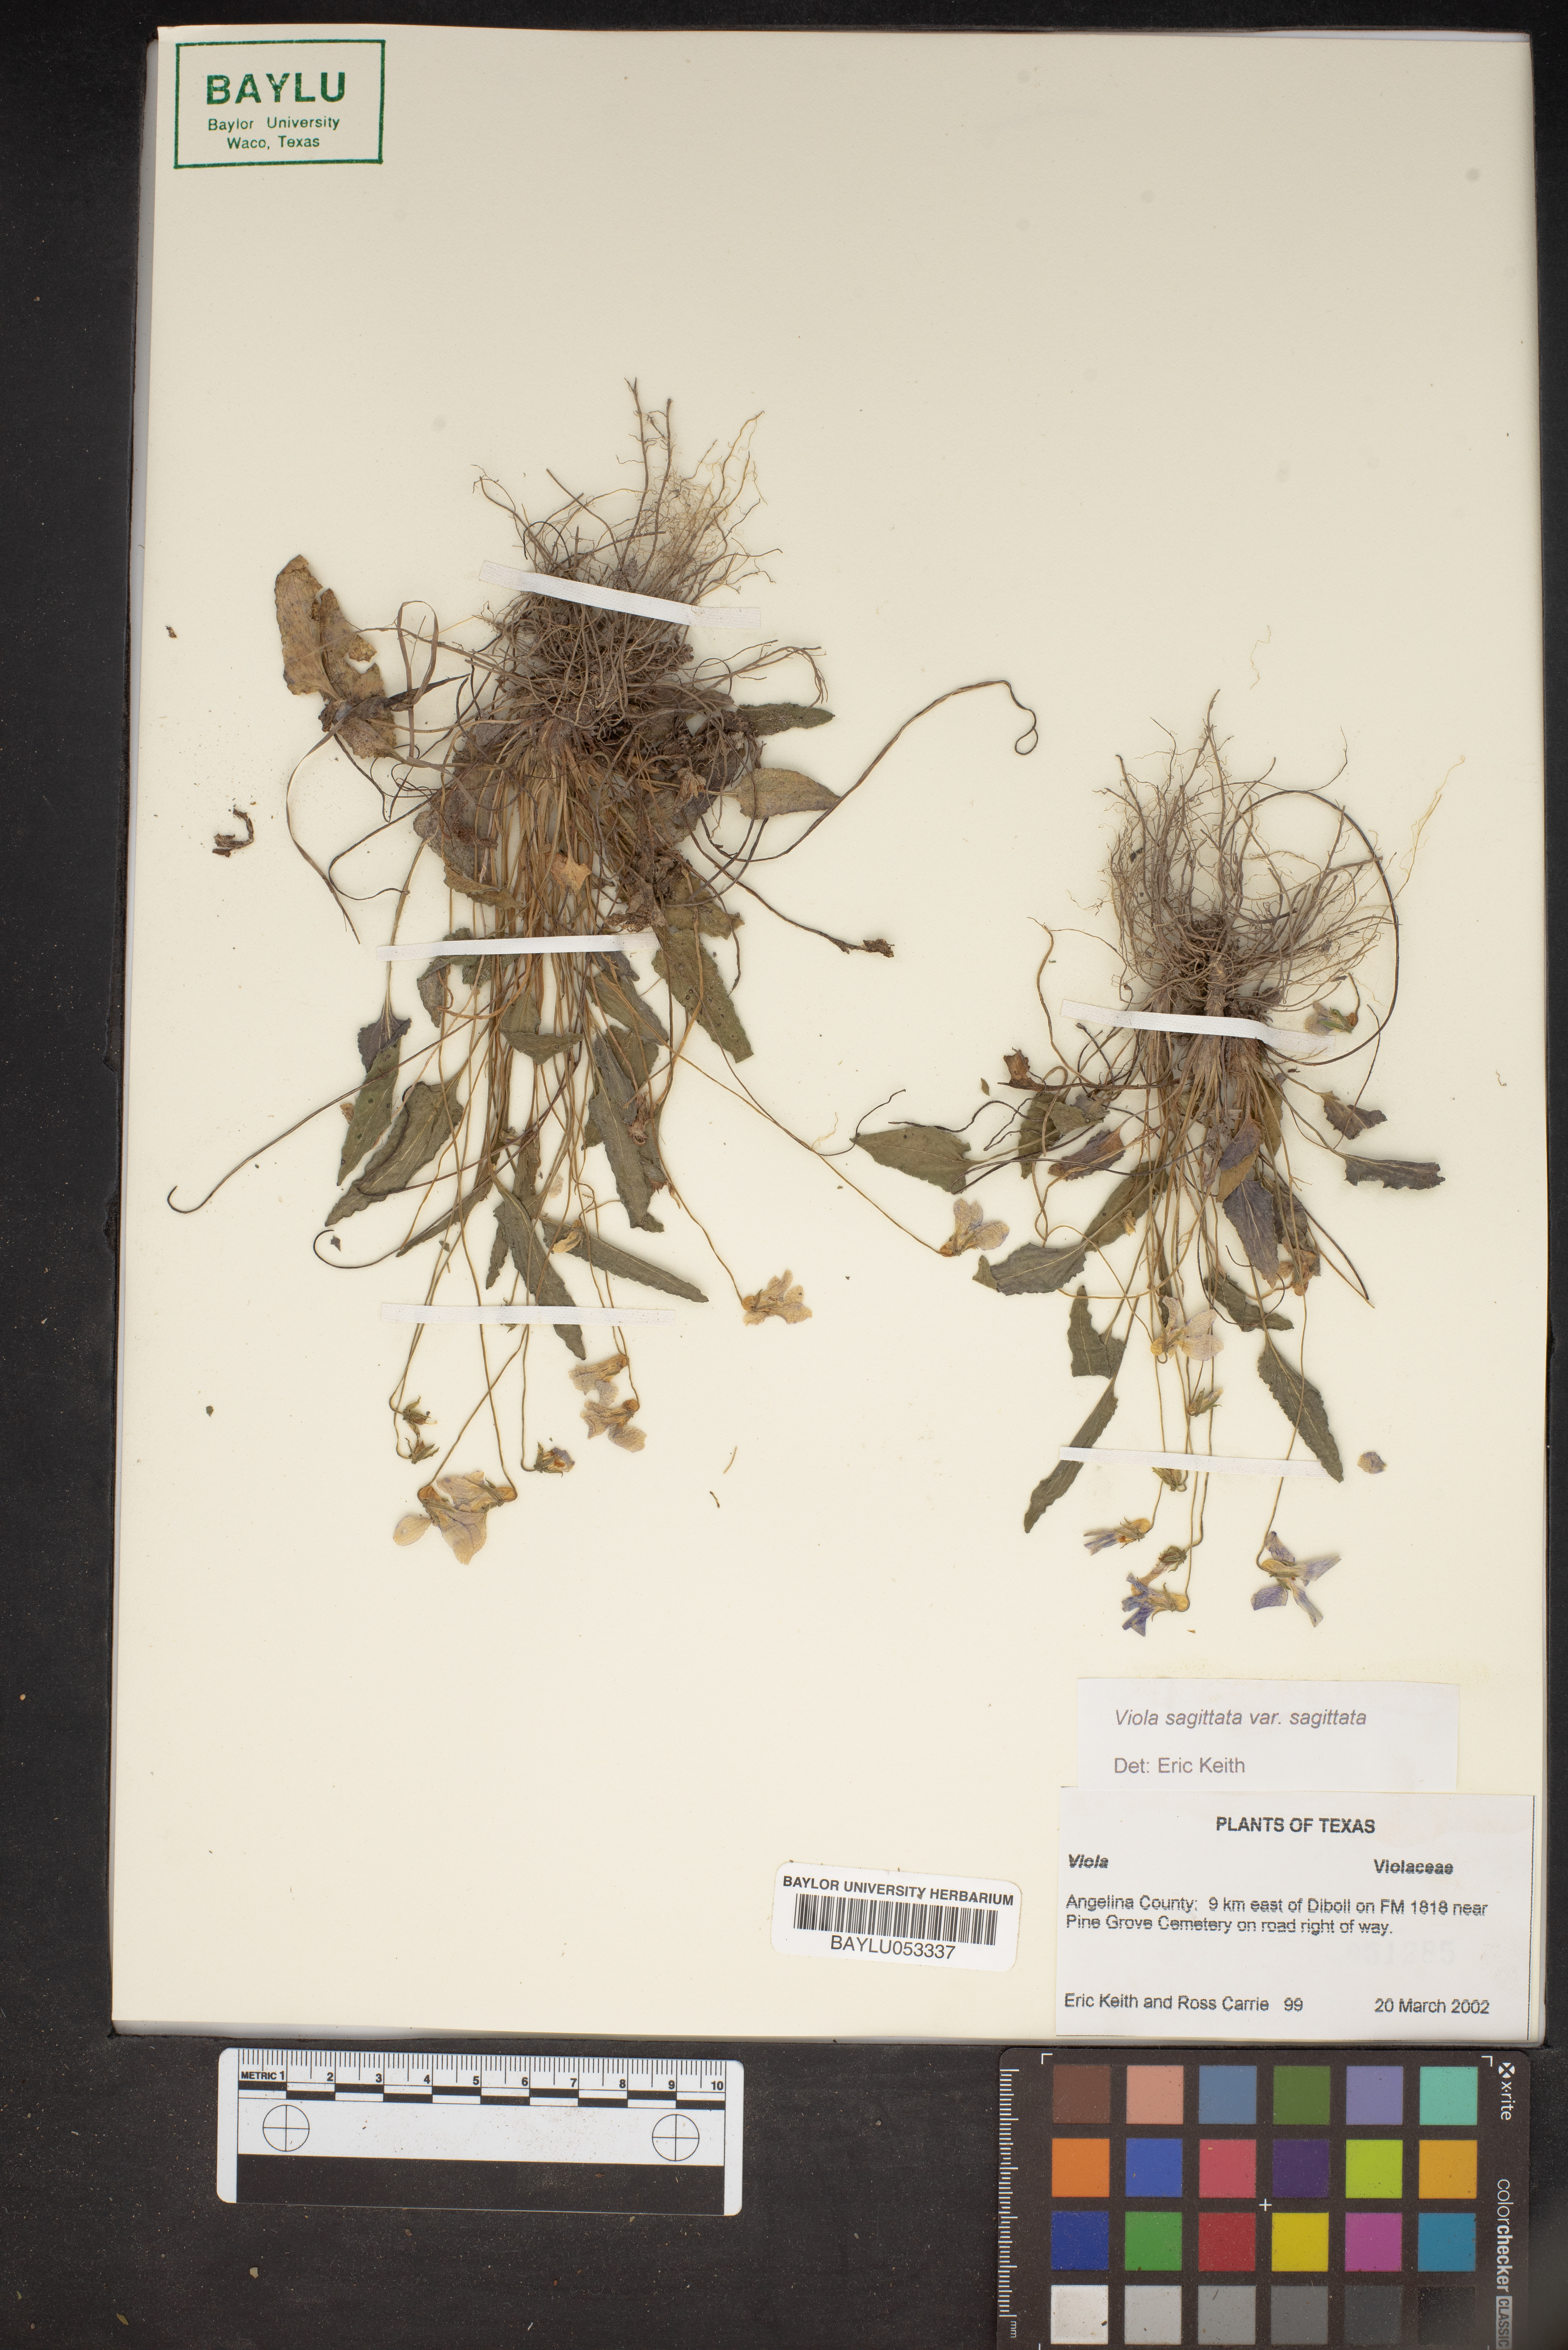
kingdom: Plantae
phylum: Tracheophyta
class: Magnoliopsida
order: Malpighiales
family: Violaceae
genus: Viola
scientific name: Viola sagittata
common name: Arrowhead violet
